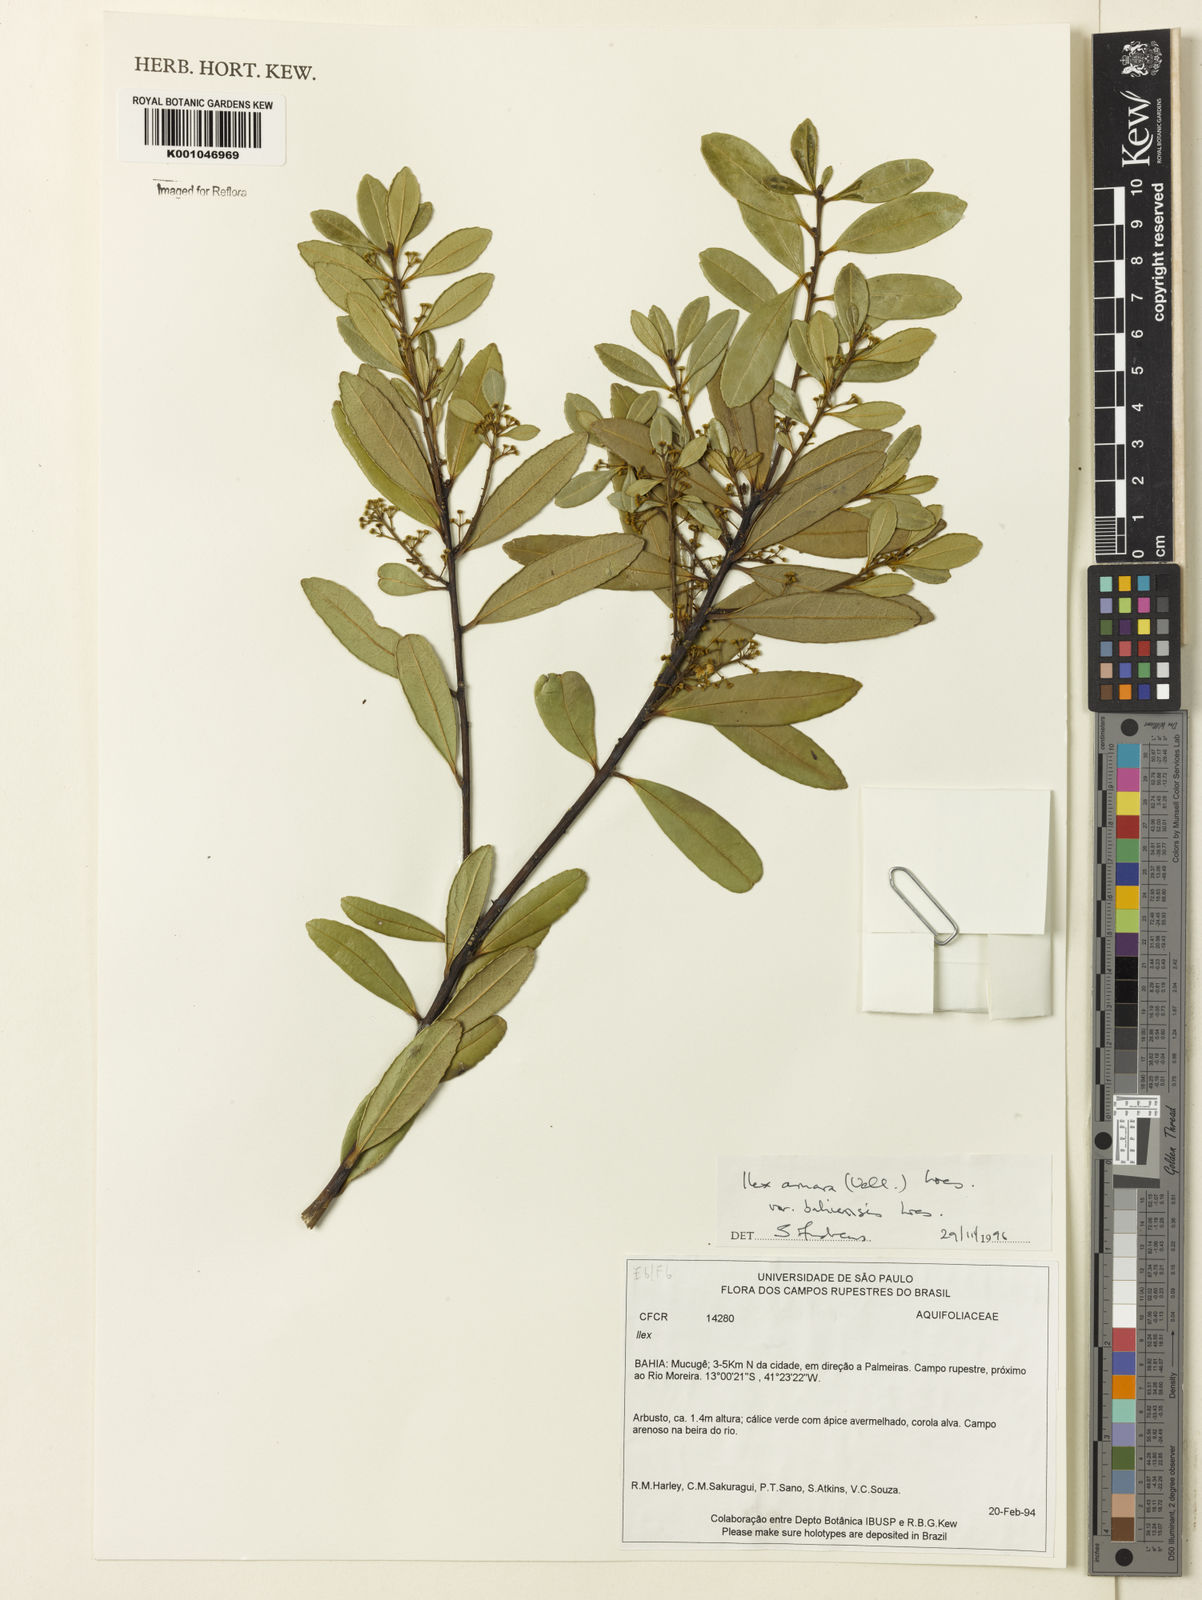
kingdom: Plantae
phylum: Tracheophyta
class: Magnoliopsida
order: Aquifoliales
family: Aquifoliaceae
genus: Ilex
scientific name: Ilex dumosa
